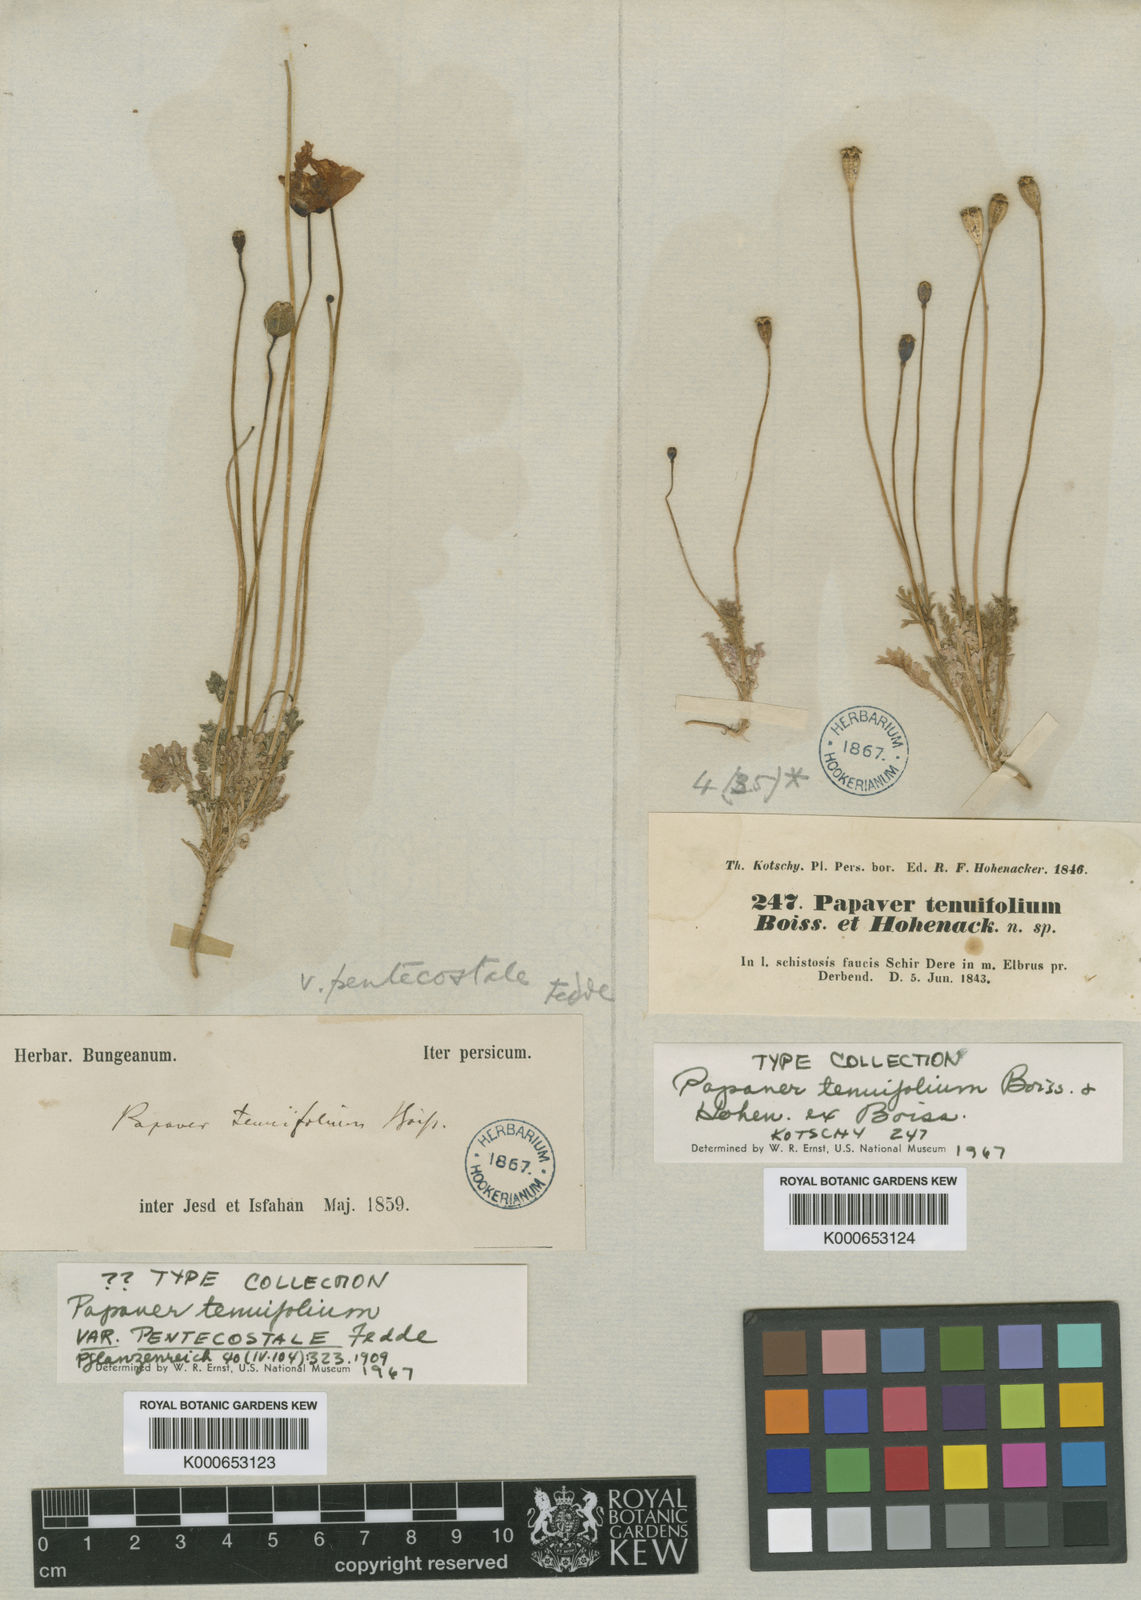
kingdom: Plantae
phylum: Tracheophyta
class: Magnoliopsida
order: Ranunculales
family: Papaveraceae
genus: Papaver
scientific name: Papaver tenuifolium
